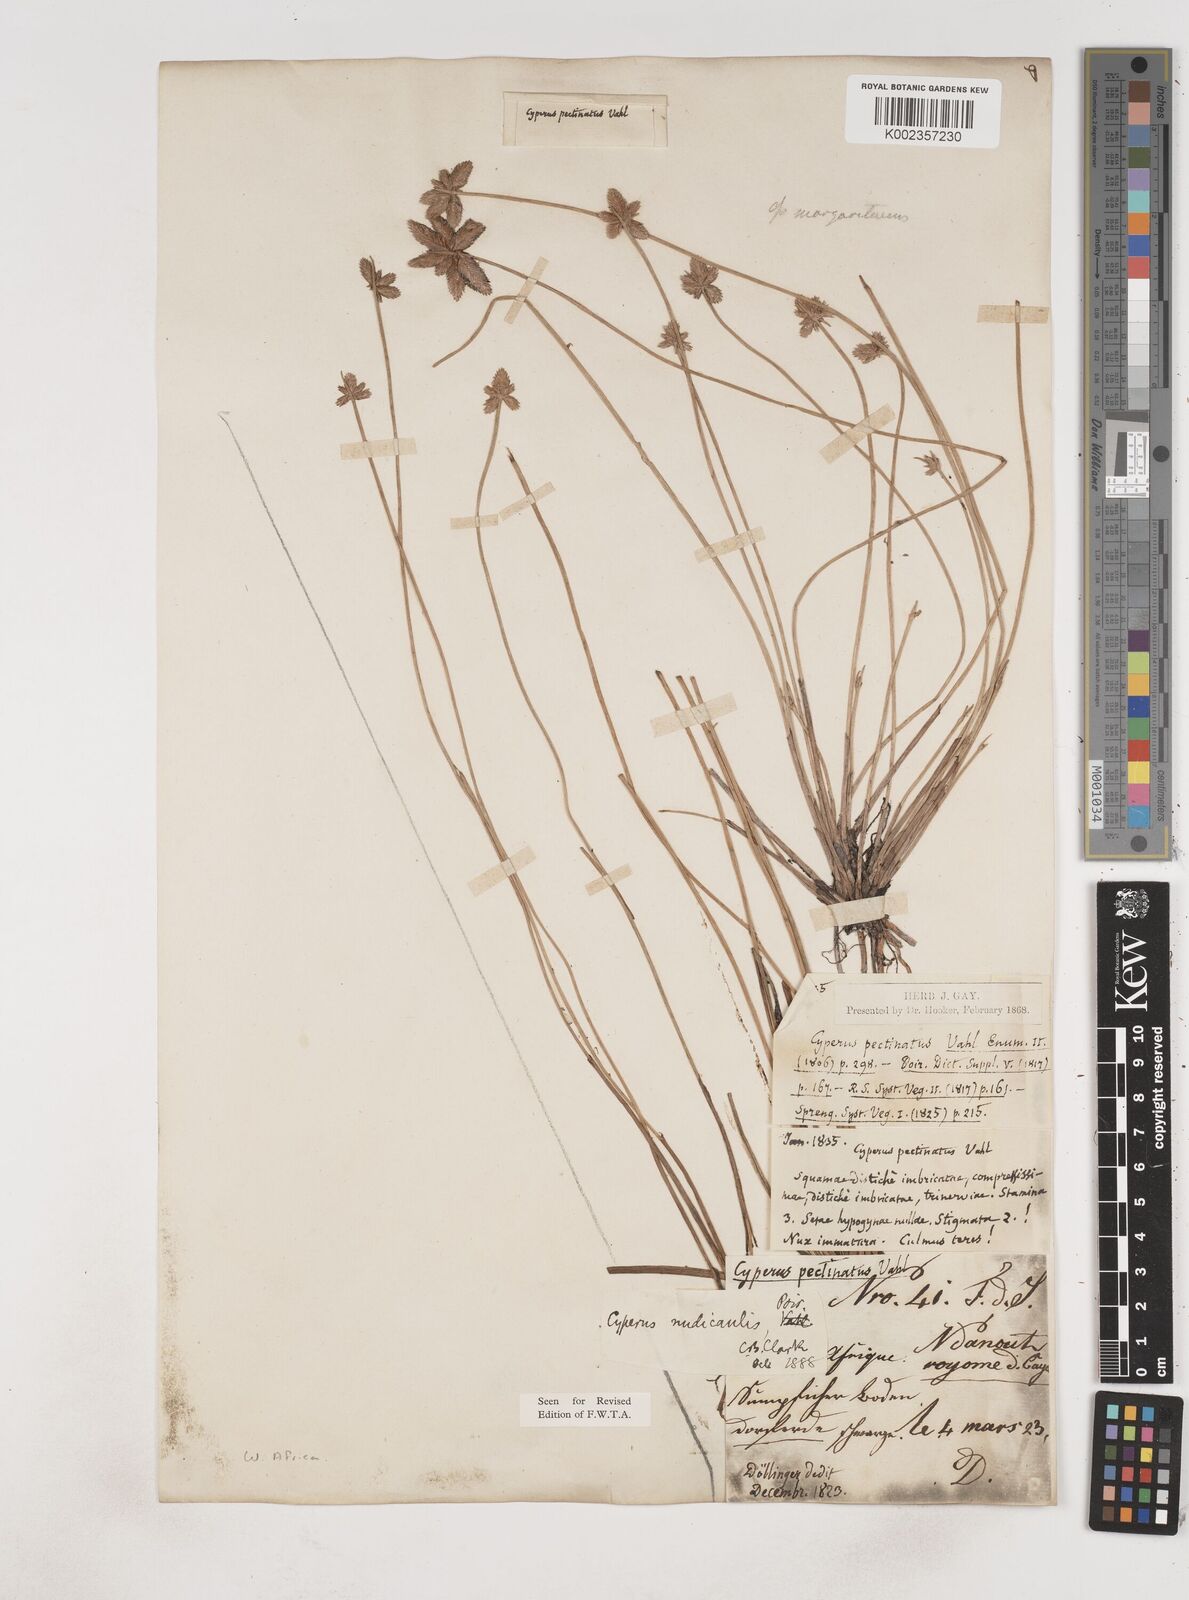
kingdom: Plantae
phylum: Tracheophyta
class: Liliopsida
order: Poales
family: Cyperaceae
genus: Cyperus
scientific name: Cyperus pectinatus
